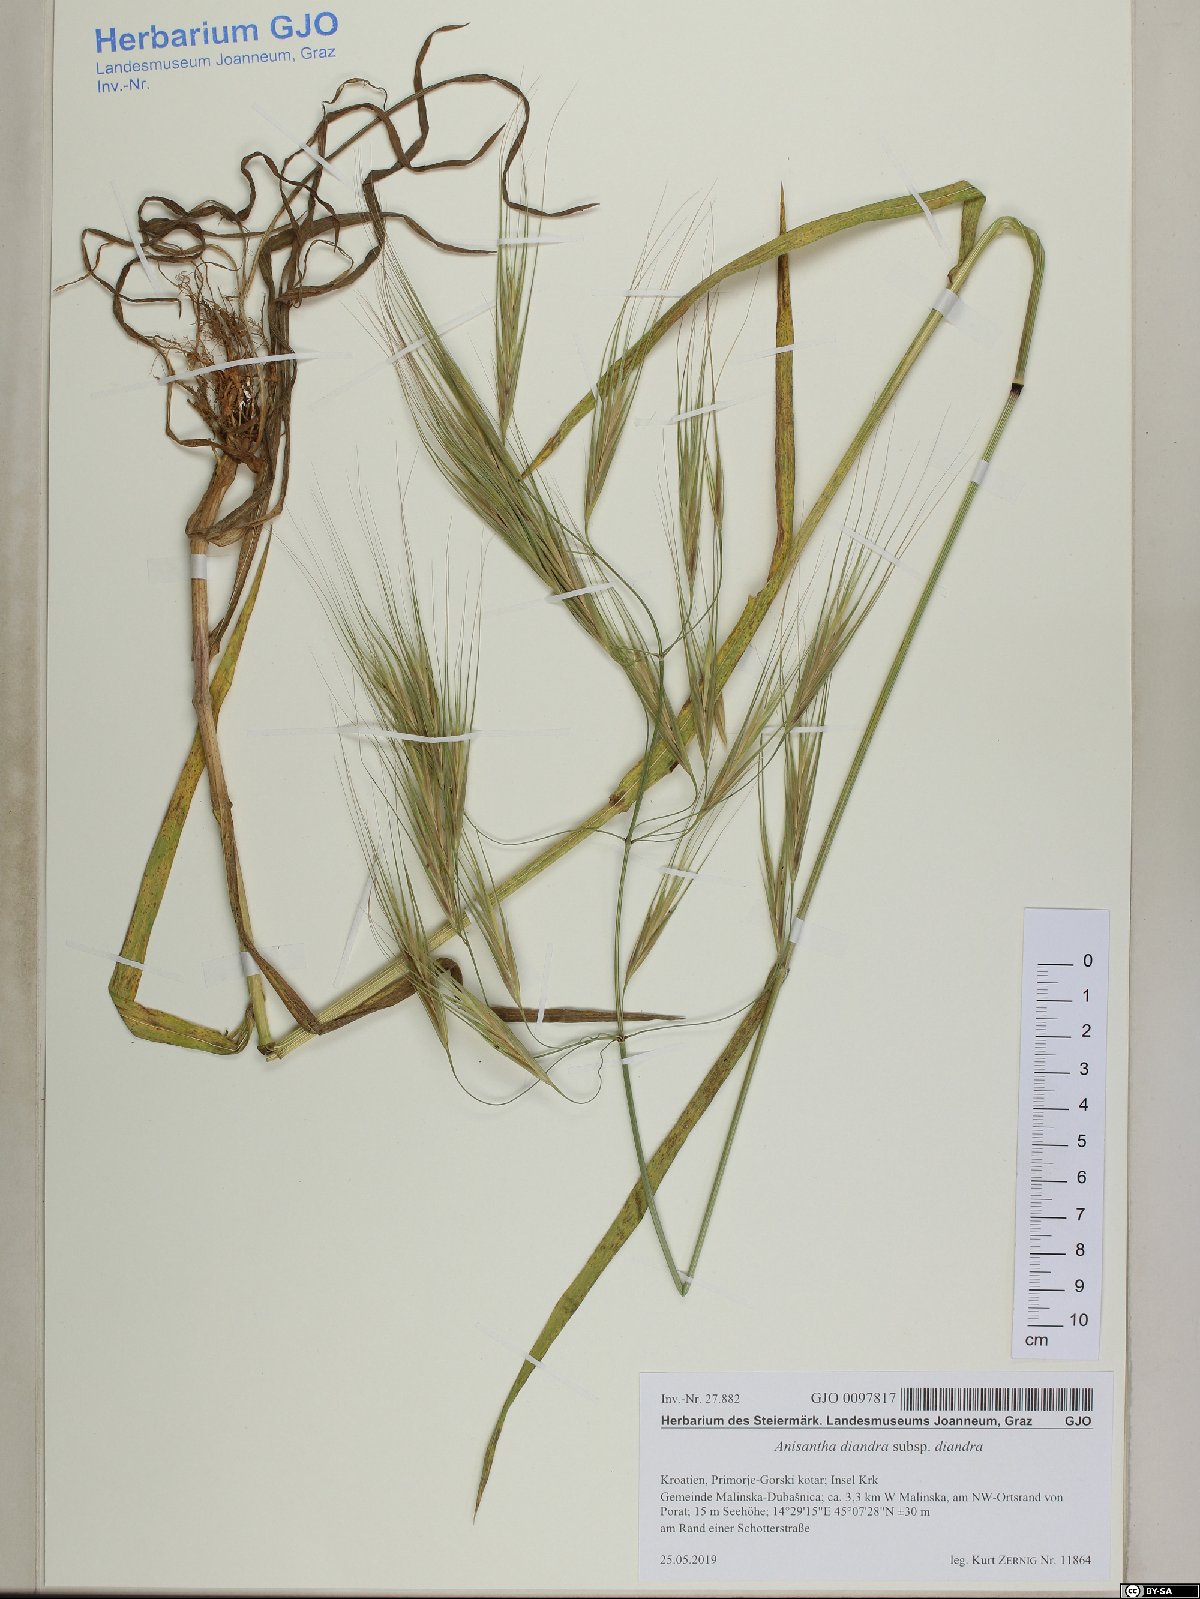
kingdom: Plantae
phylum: Tracheophyta
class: Liliopsida
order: Poales
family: Poaceae
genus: Bromus
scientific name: Bromus diandrus
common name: Ripgut brome
